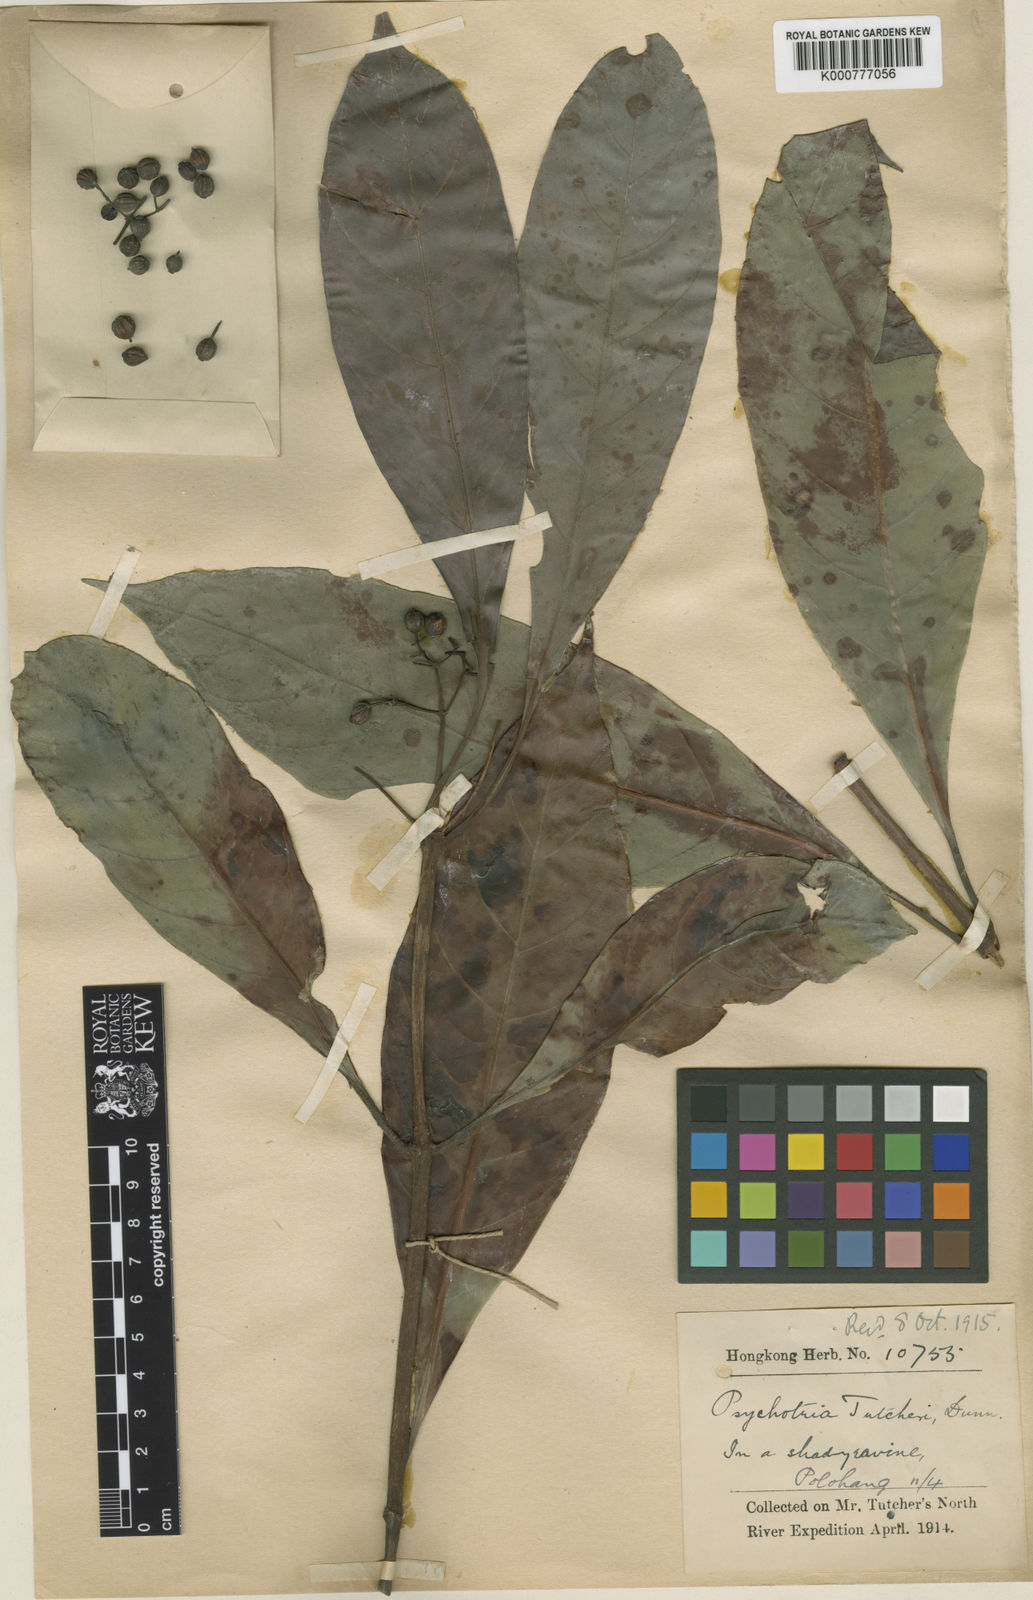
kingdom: Plantae
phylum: Tracheophyta
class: Magnoliopsida
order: Gentianales
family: Rubiaceae
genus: Psychotria
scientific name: Psychotria tutcheri
